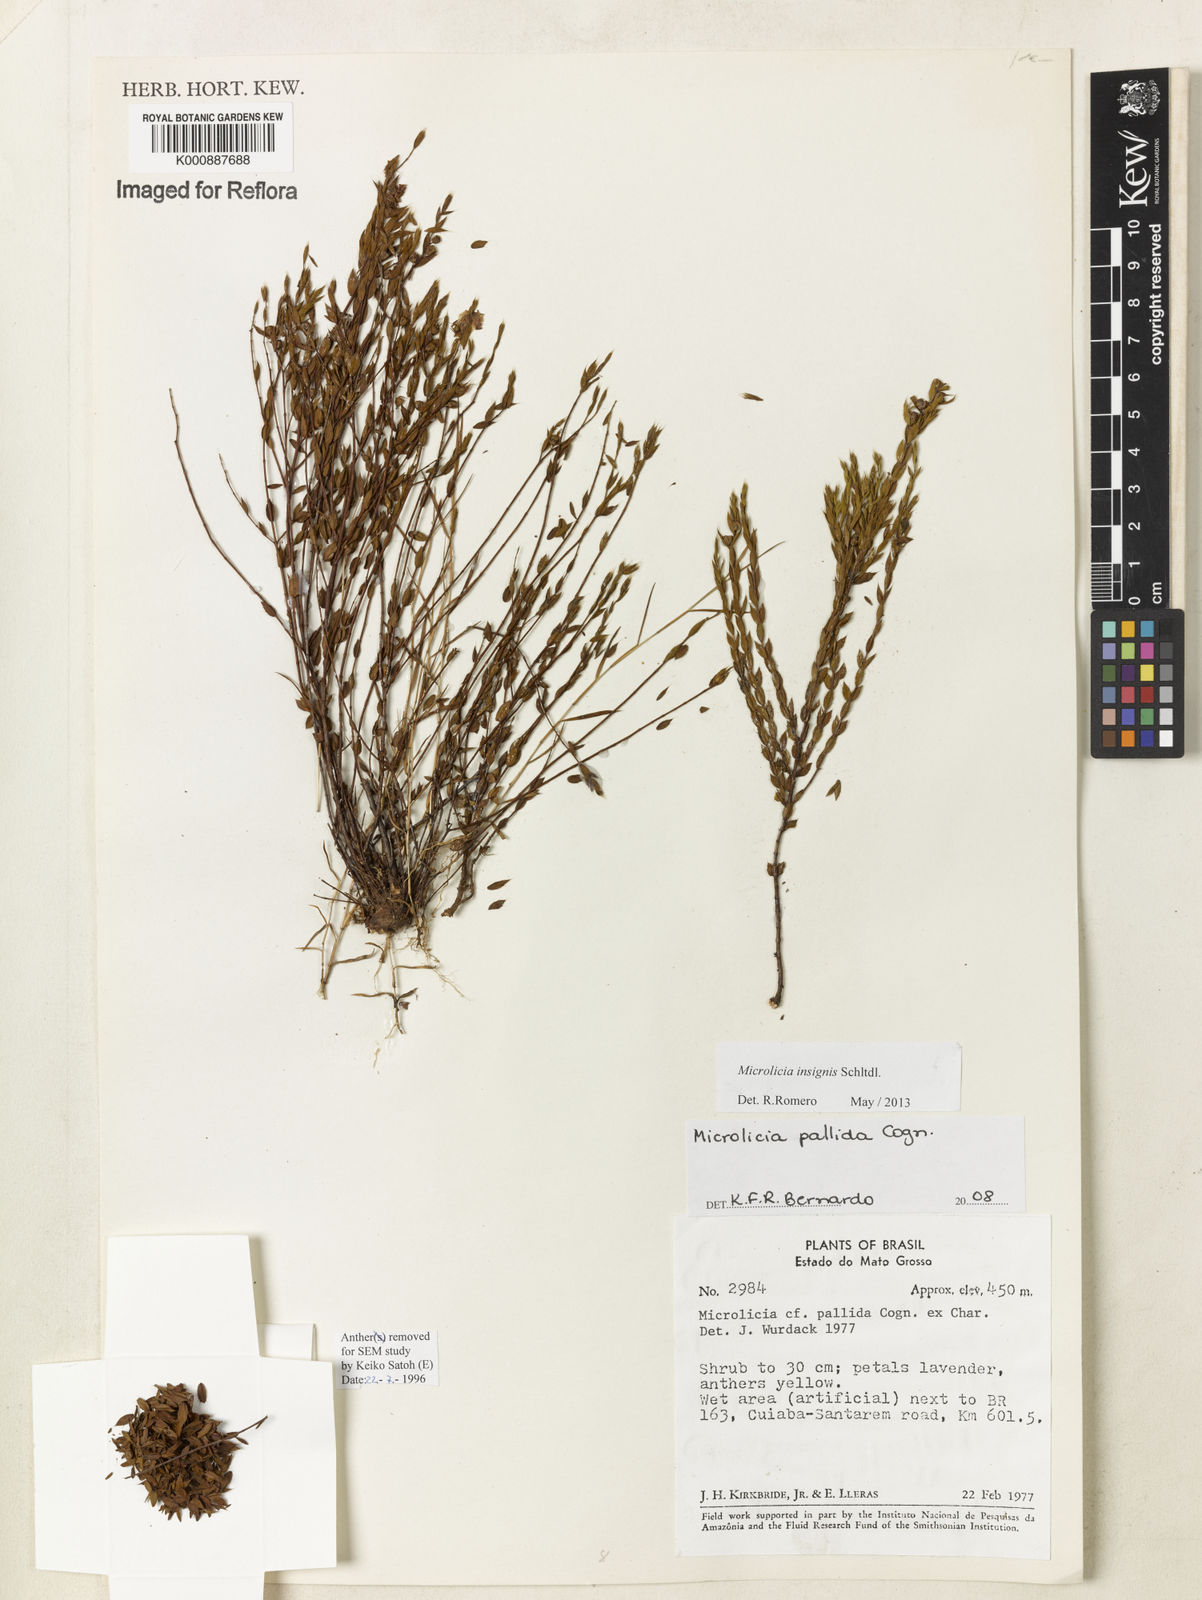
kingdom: Plantae
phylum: Tracheophyta
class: Magnoliopsida
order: Myrtales
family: Melastomataceae
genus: Microlicia
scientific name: Microlicia insignis
